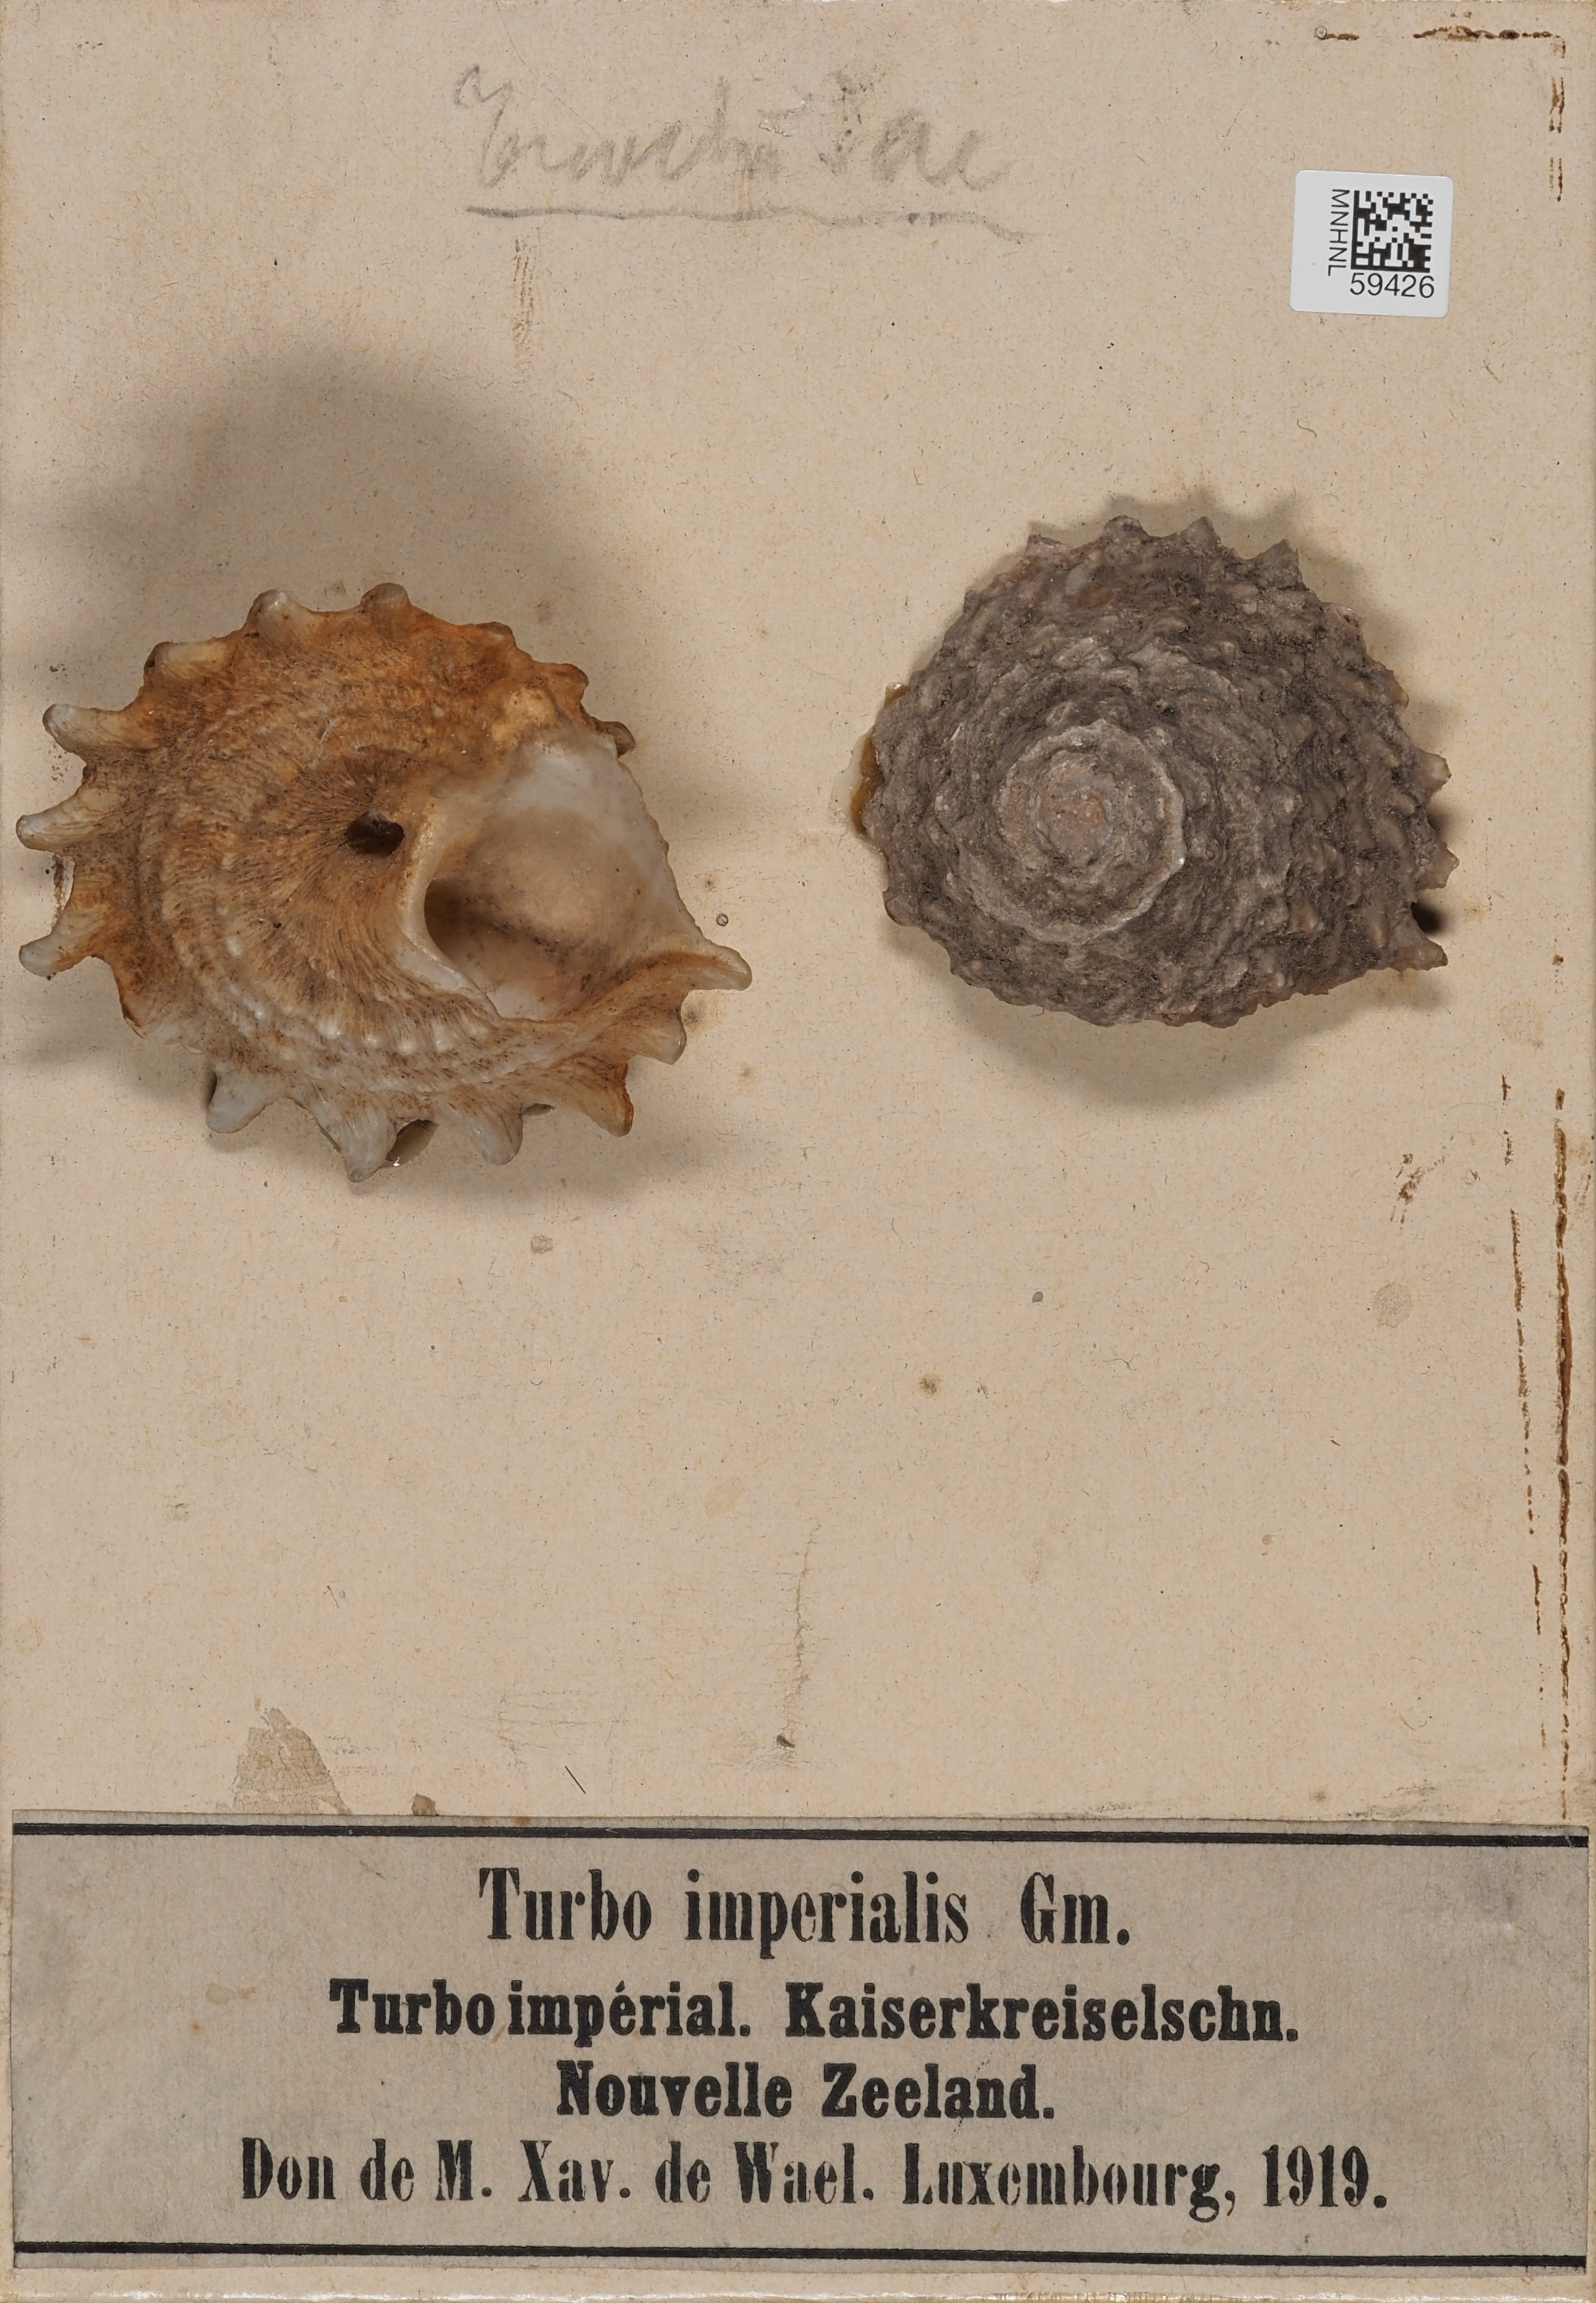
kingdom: Animalia
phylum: Mollusca
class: Gastropoda
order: Trochida
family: Turbinidae
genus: Turbo
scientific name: Turbo imperialis
